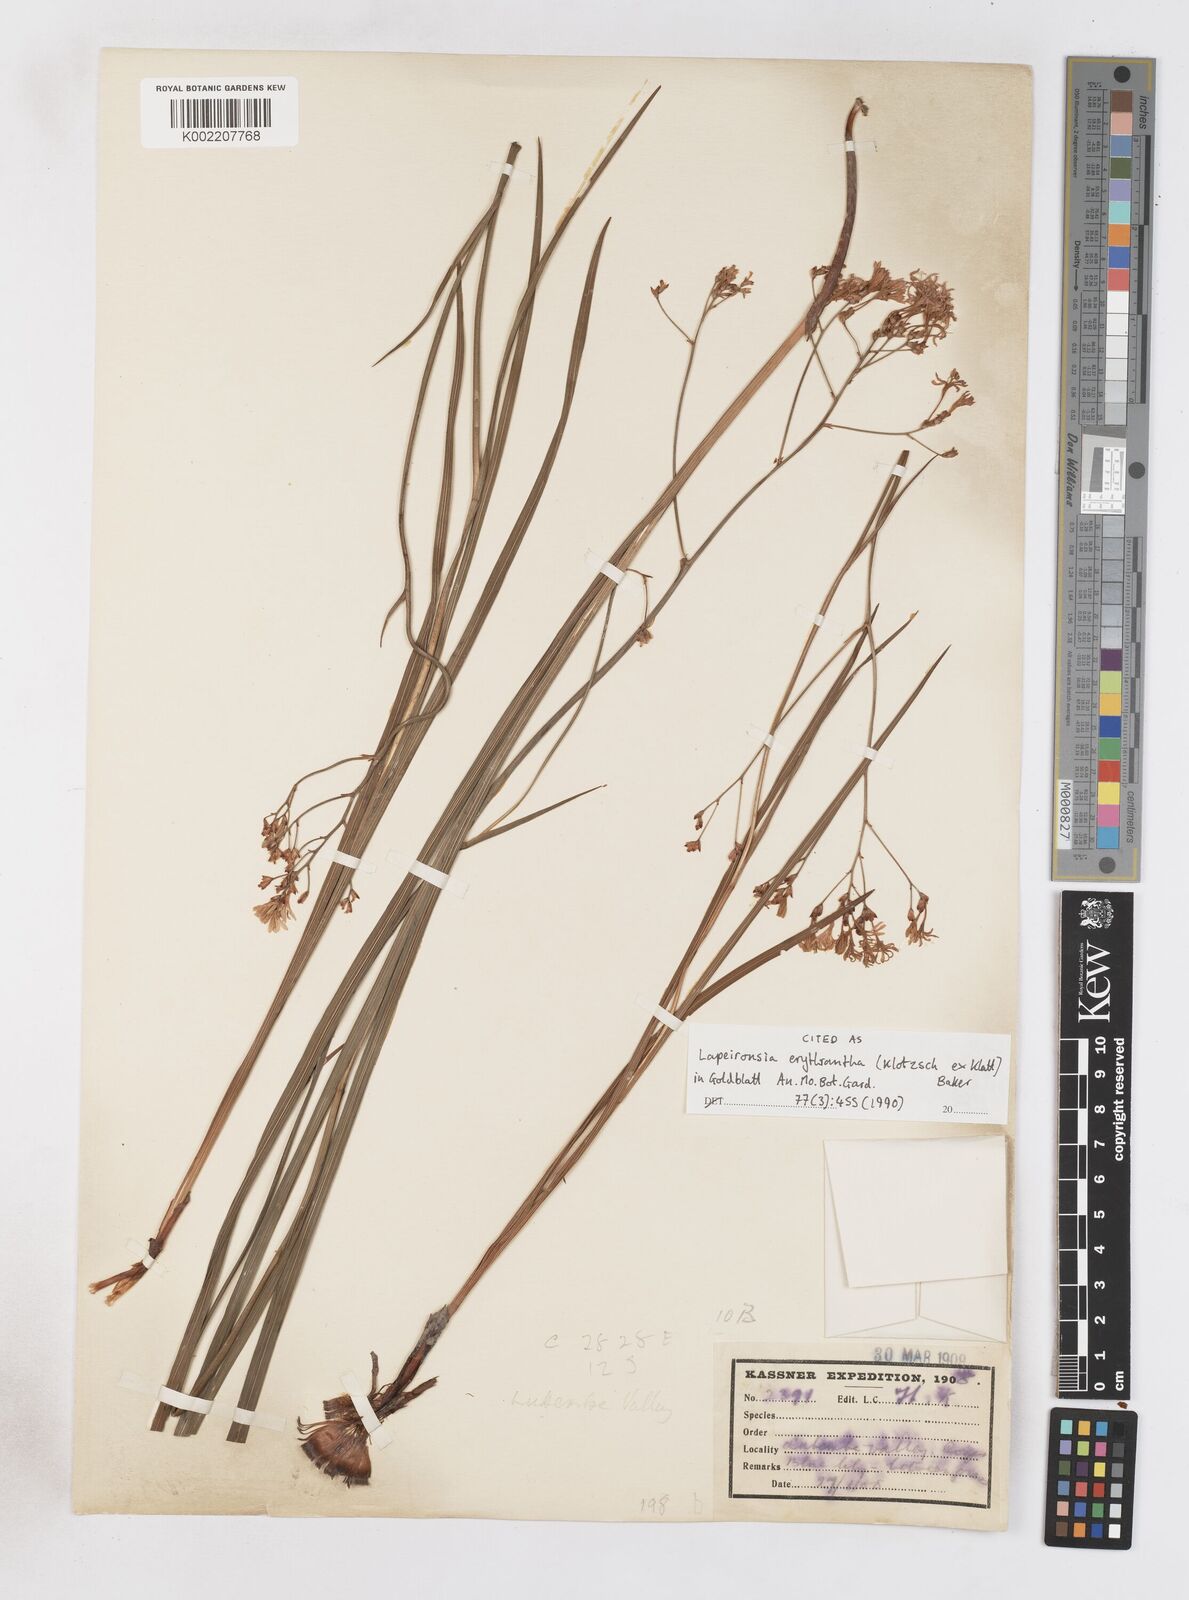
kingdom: Plantae
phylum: Tracheophyta
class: Liliopsida
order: Asparagales
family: Iridaceae
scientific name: Iridaceae
